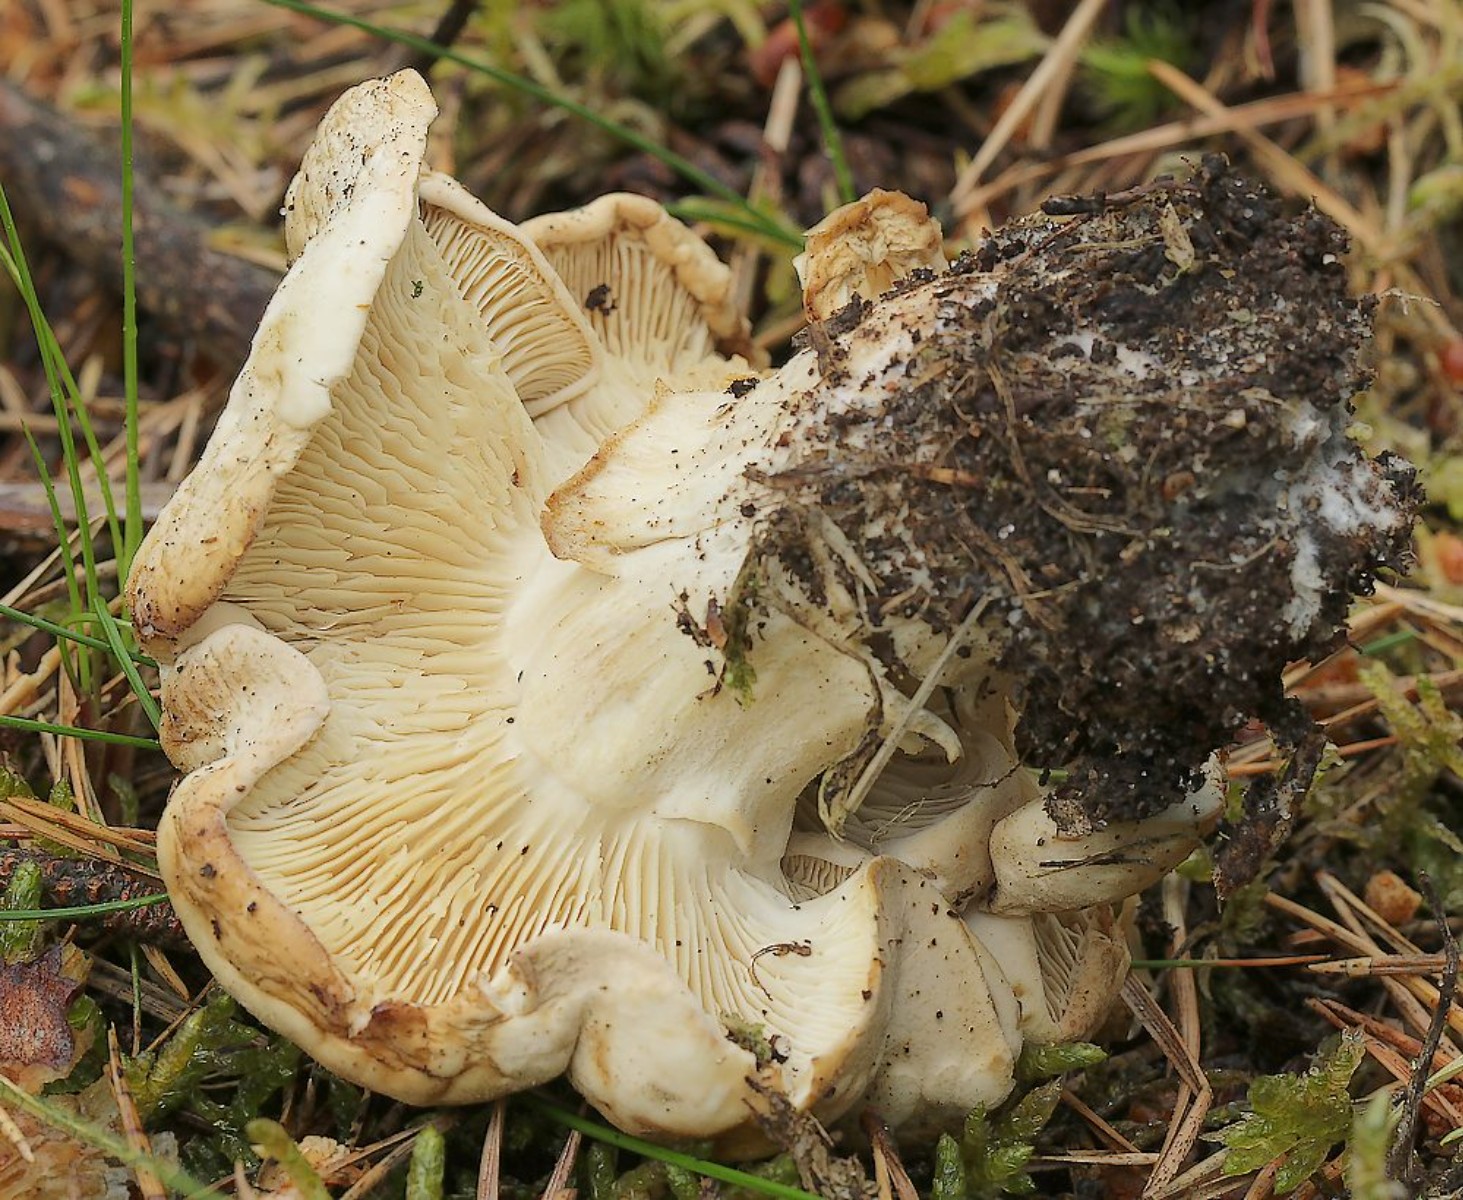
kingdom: Fungi
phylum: Basidiomycota
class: Agaricomycetes
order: Agaricales
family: Lyophyllaceae
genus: Calocybe
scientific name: Calocybe gambosa
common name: vårmusseron
